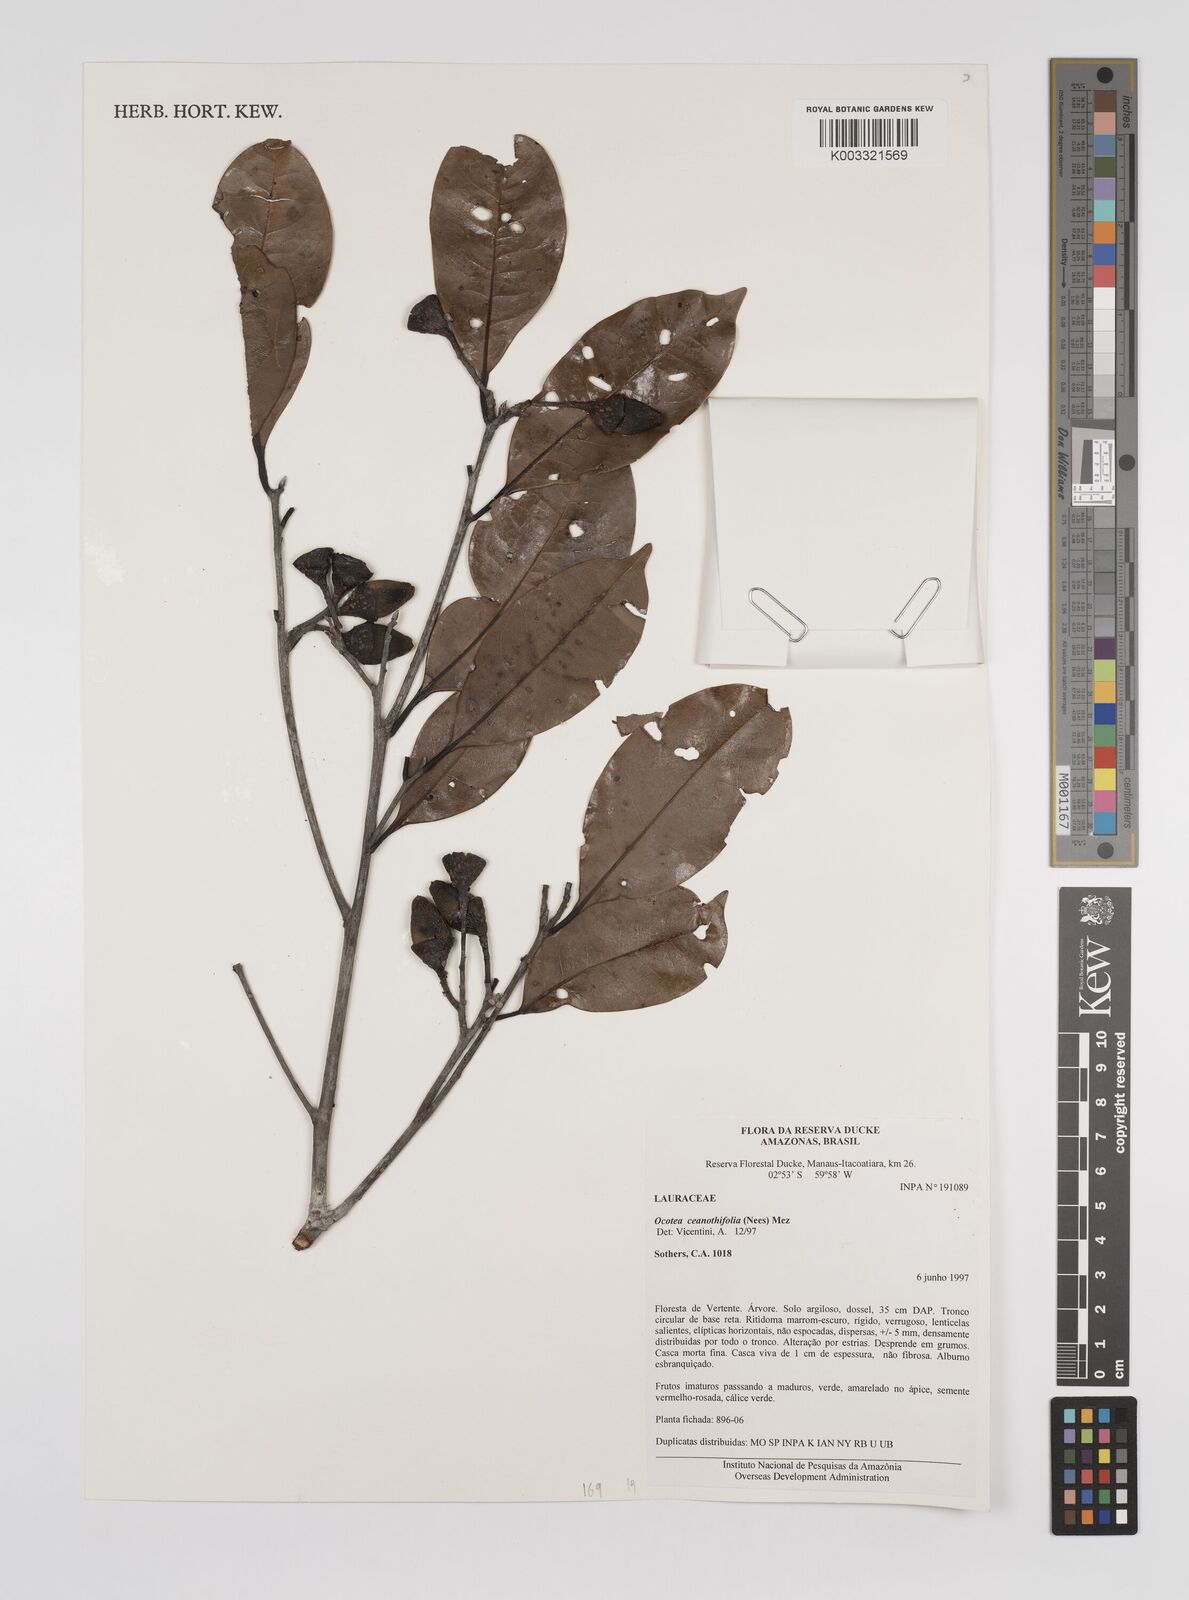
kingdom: Plantae
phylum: Tracheophyta
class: Magnoliopsida
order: Laurales
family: Lauraceae
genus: Mespilodaphne
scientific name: Mespilodaphne ceanothifolia
